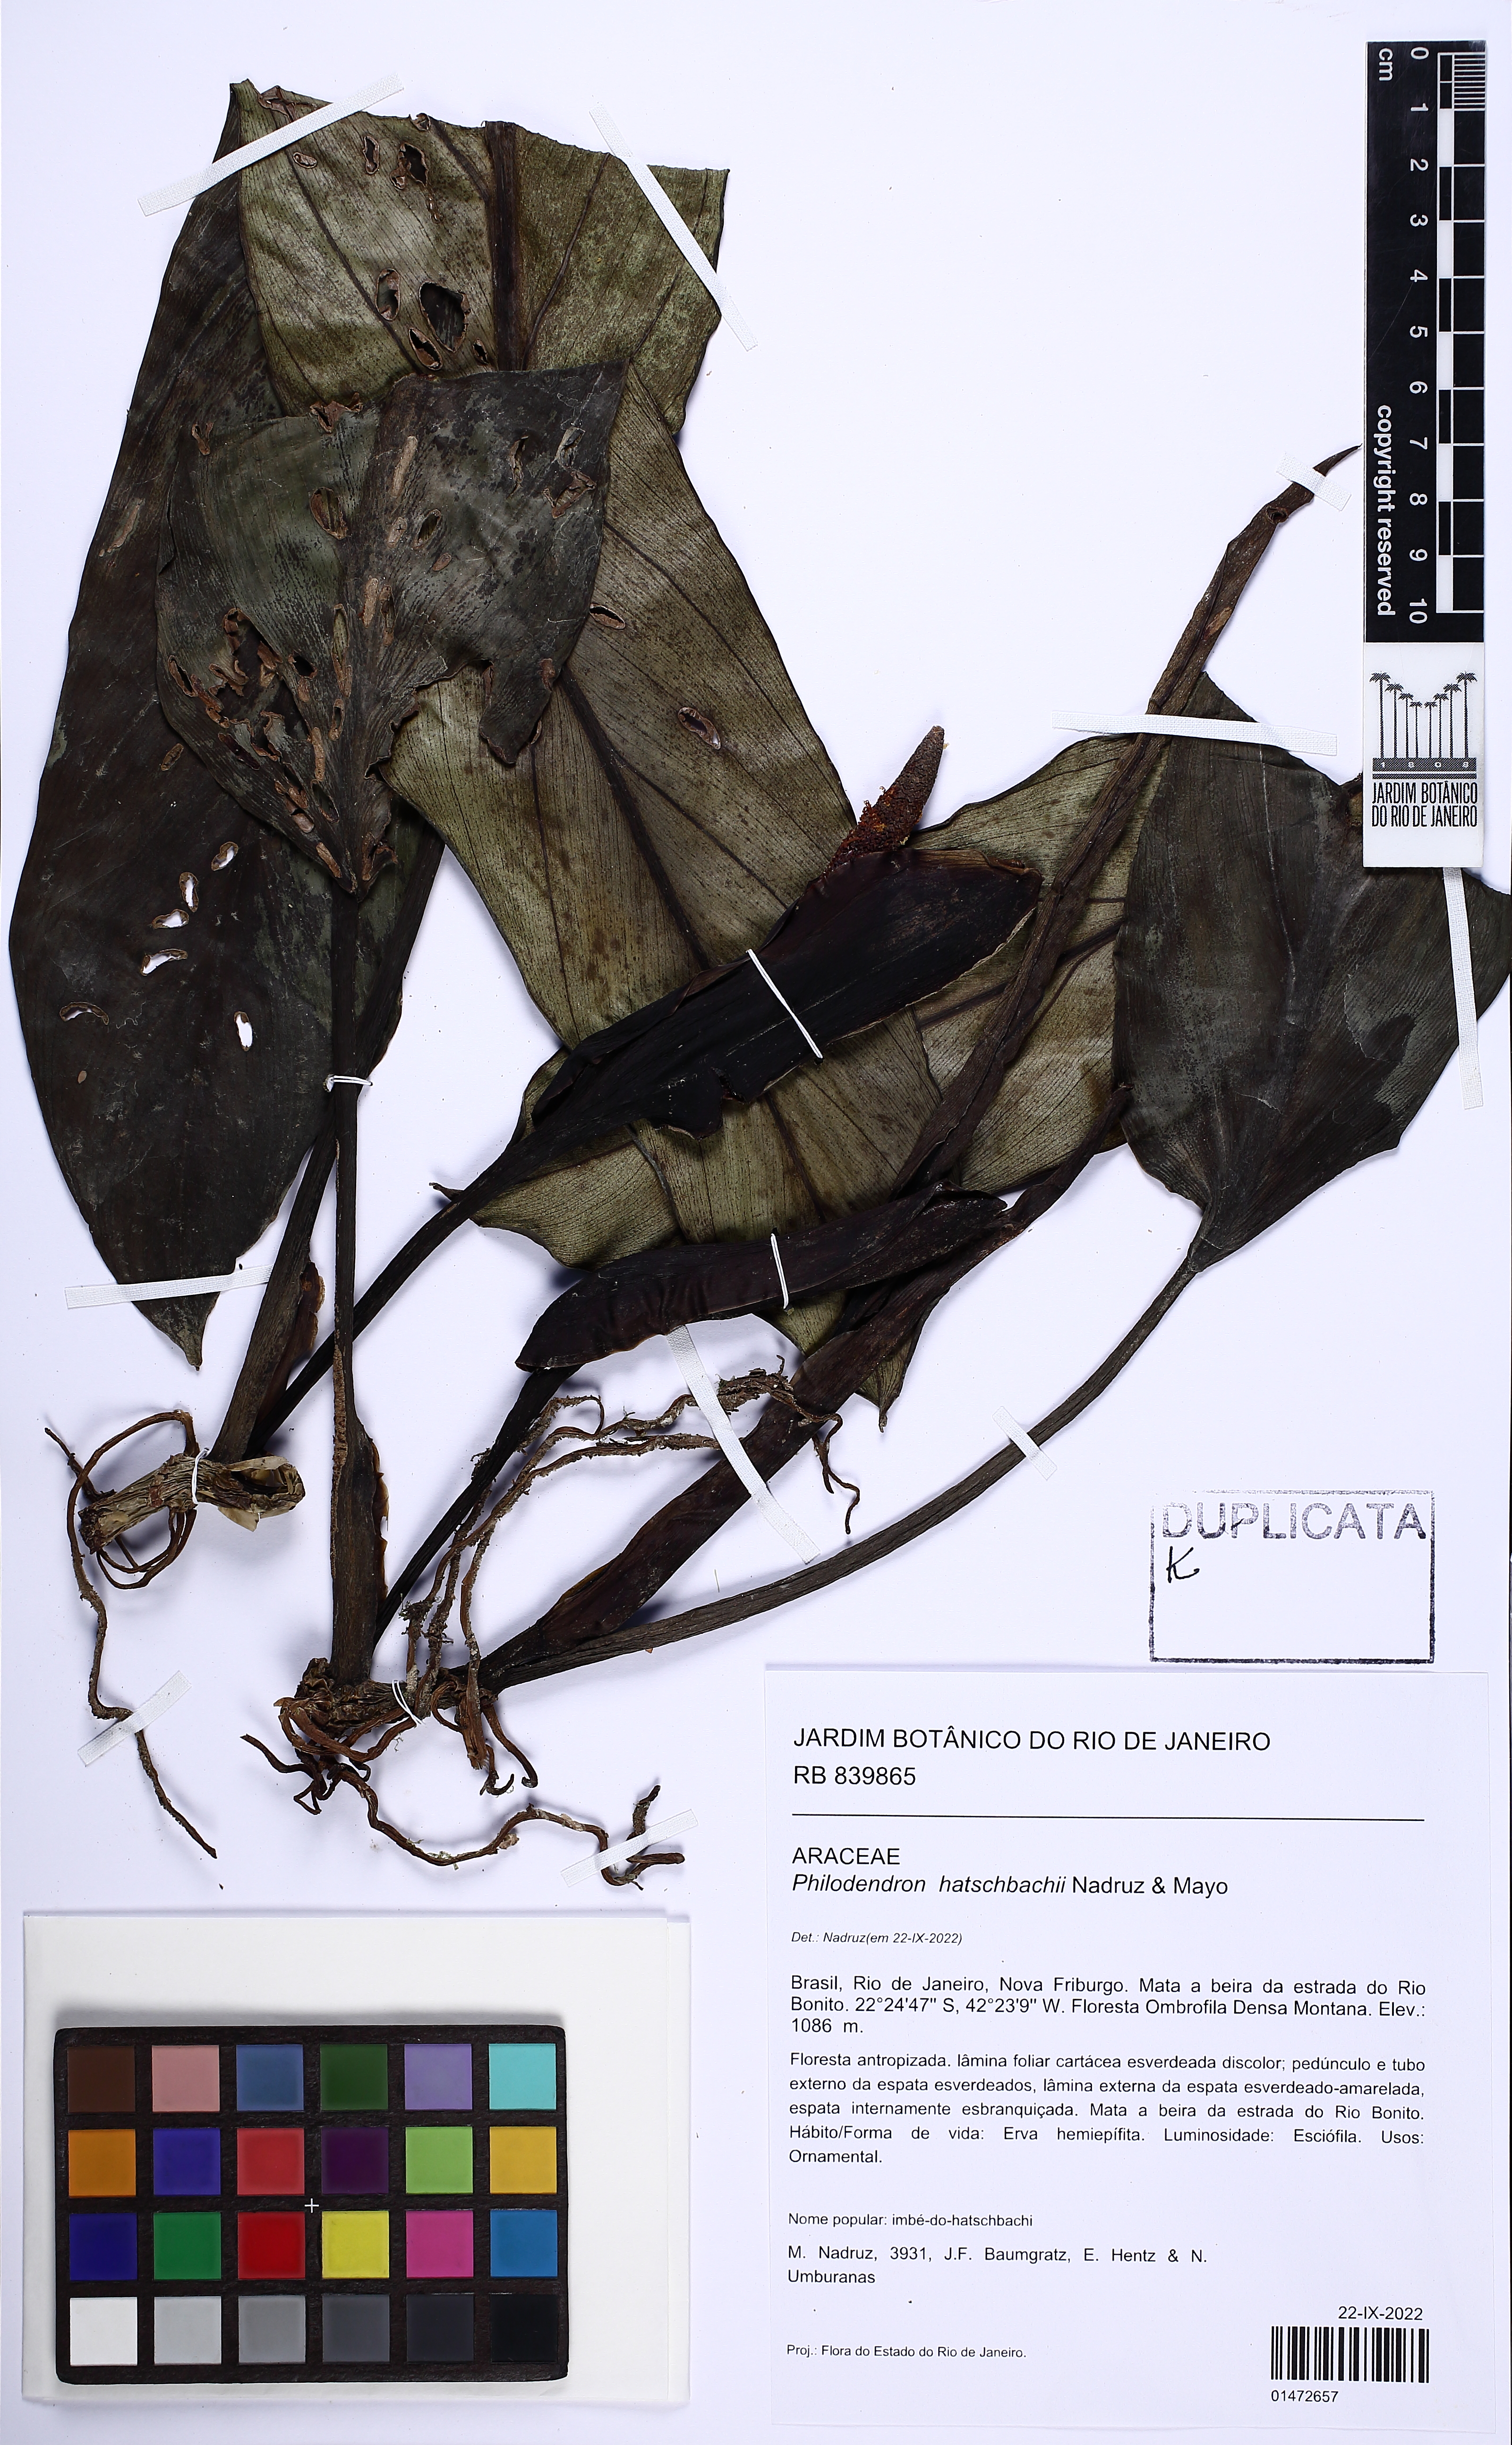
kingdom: Plantae
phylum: Tracheophyta
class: Liliopsida
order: Alismatales
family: Araceae
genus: Philodendron
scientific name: Philodendron hatschbachii
